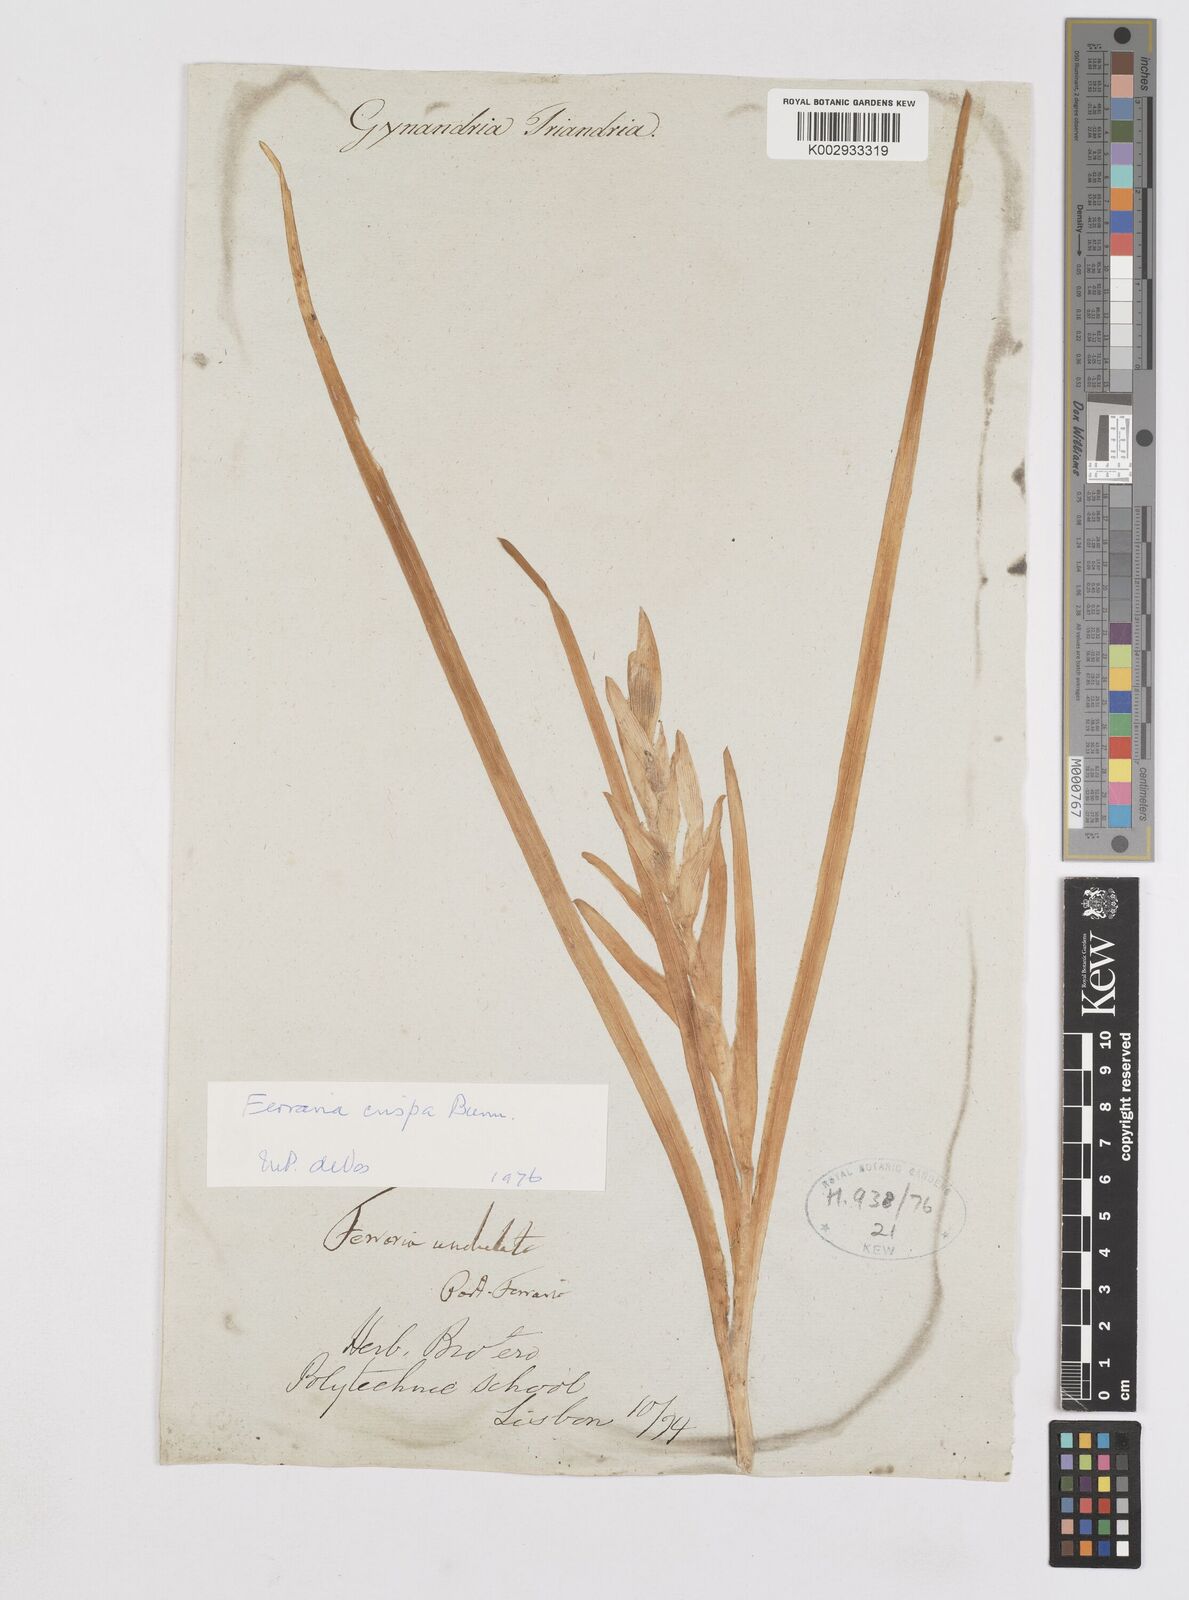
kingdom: Plantae
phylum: Tracheophyta
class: Liliopsida
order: Asparagales
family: Iridaceae
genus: Ferraria
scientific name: Ferraria crispa
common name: Black-flag
